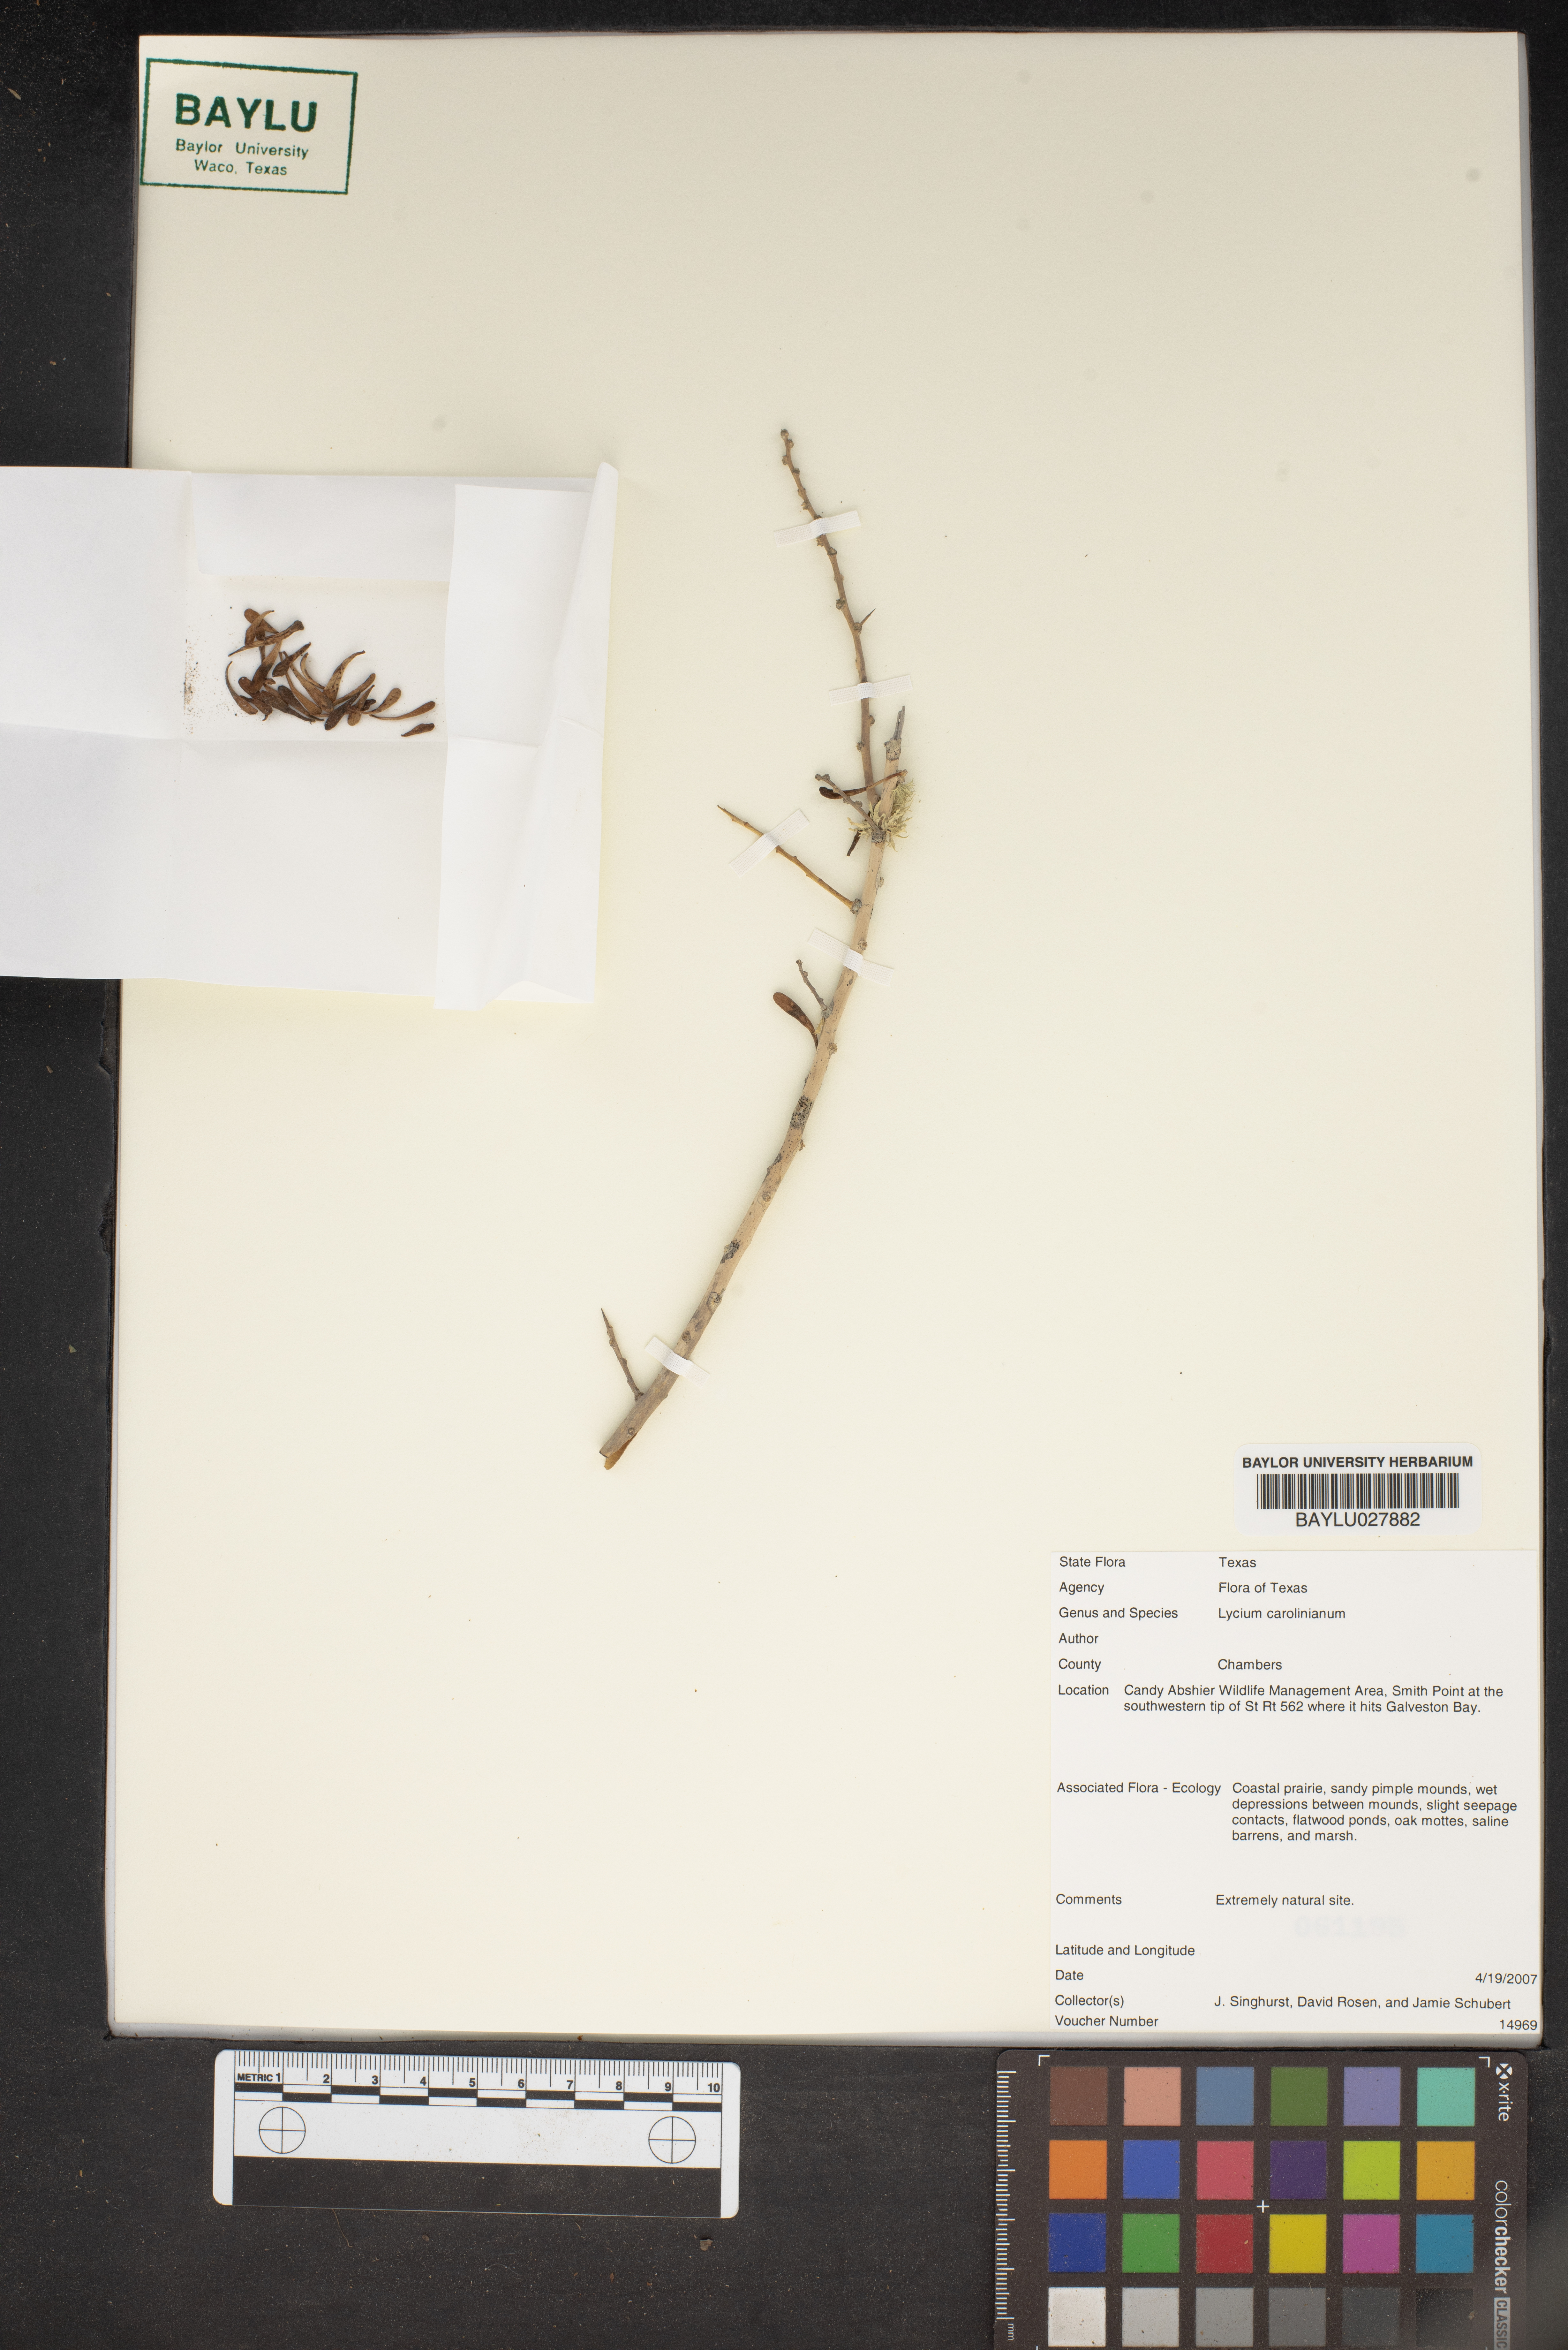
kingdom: Plantae
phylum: Tracheophyta
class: Magnoliopsida
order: Solanales
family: Solanaceae
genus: Lycium
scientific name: Lycium carolinianum
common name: Christmasberry
